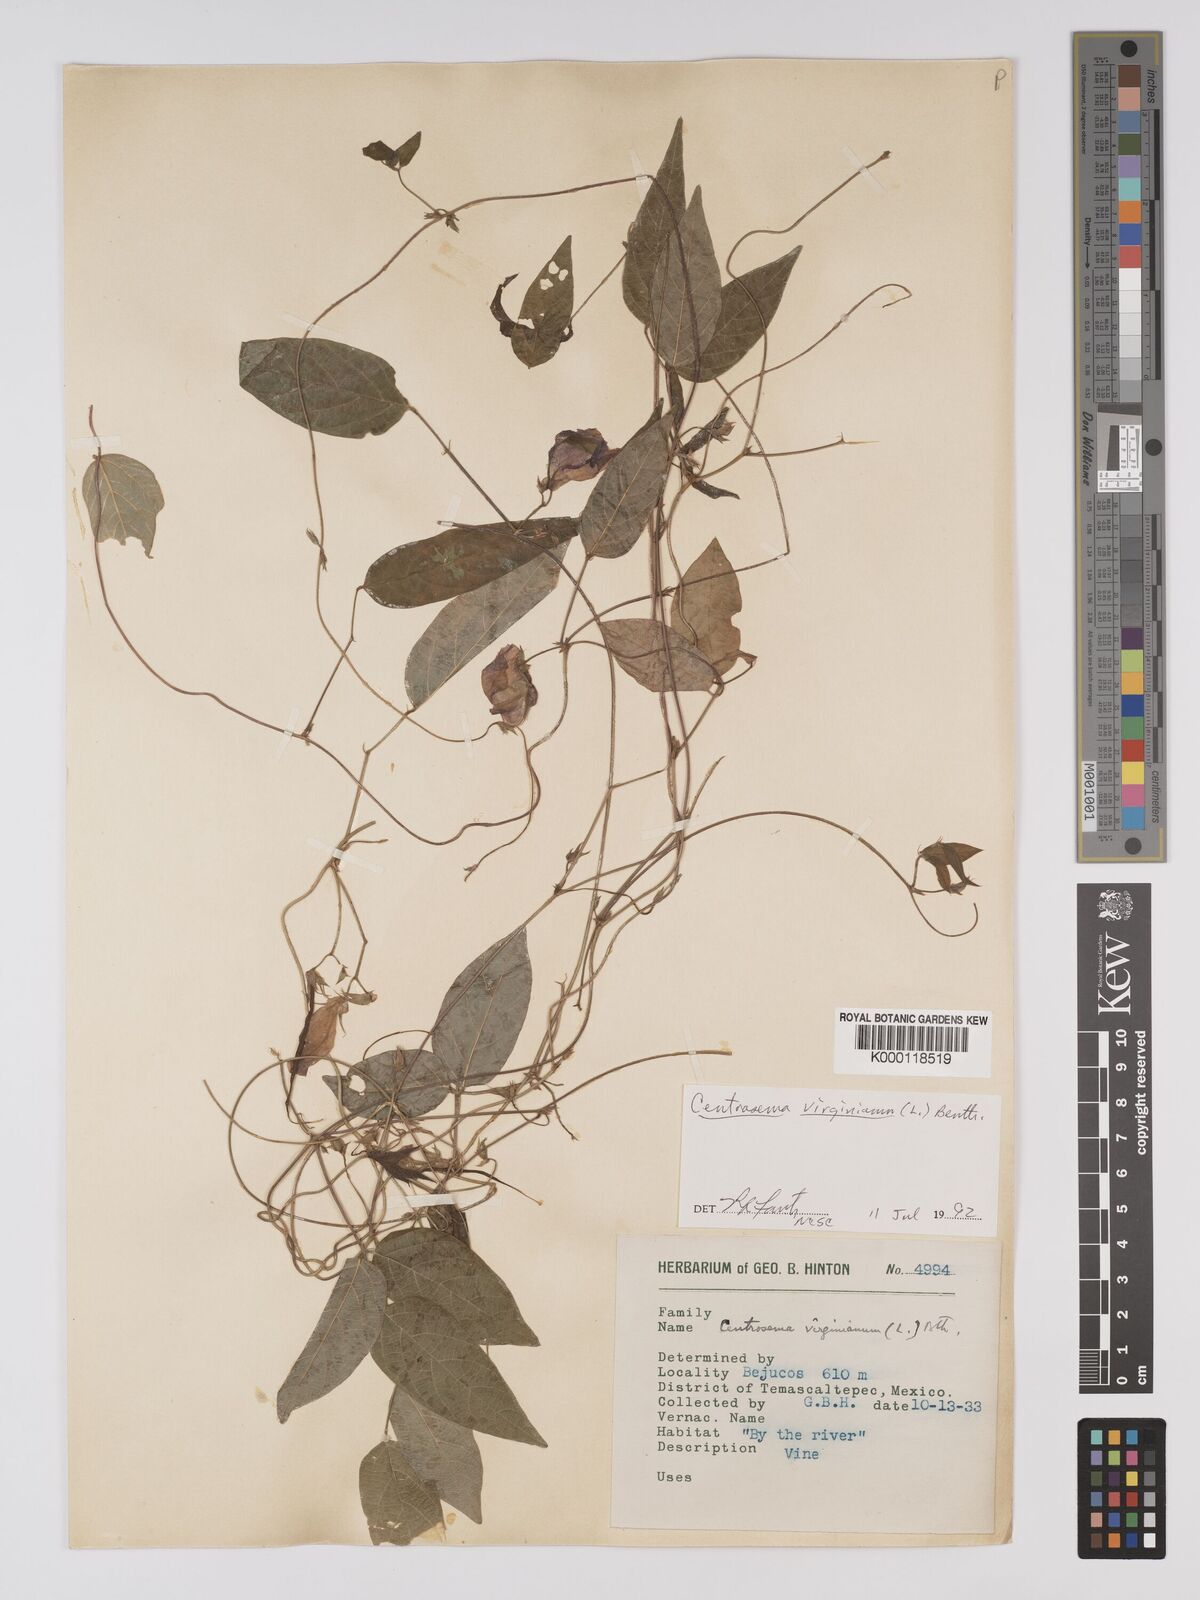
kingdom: Plantae
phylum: Tracheophyta
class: Magnoliopsida
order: Fabales
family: Fabaceae
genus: Centrosema
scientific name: Centrosema virginianum
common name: Butterfly-pea
